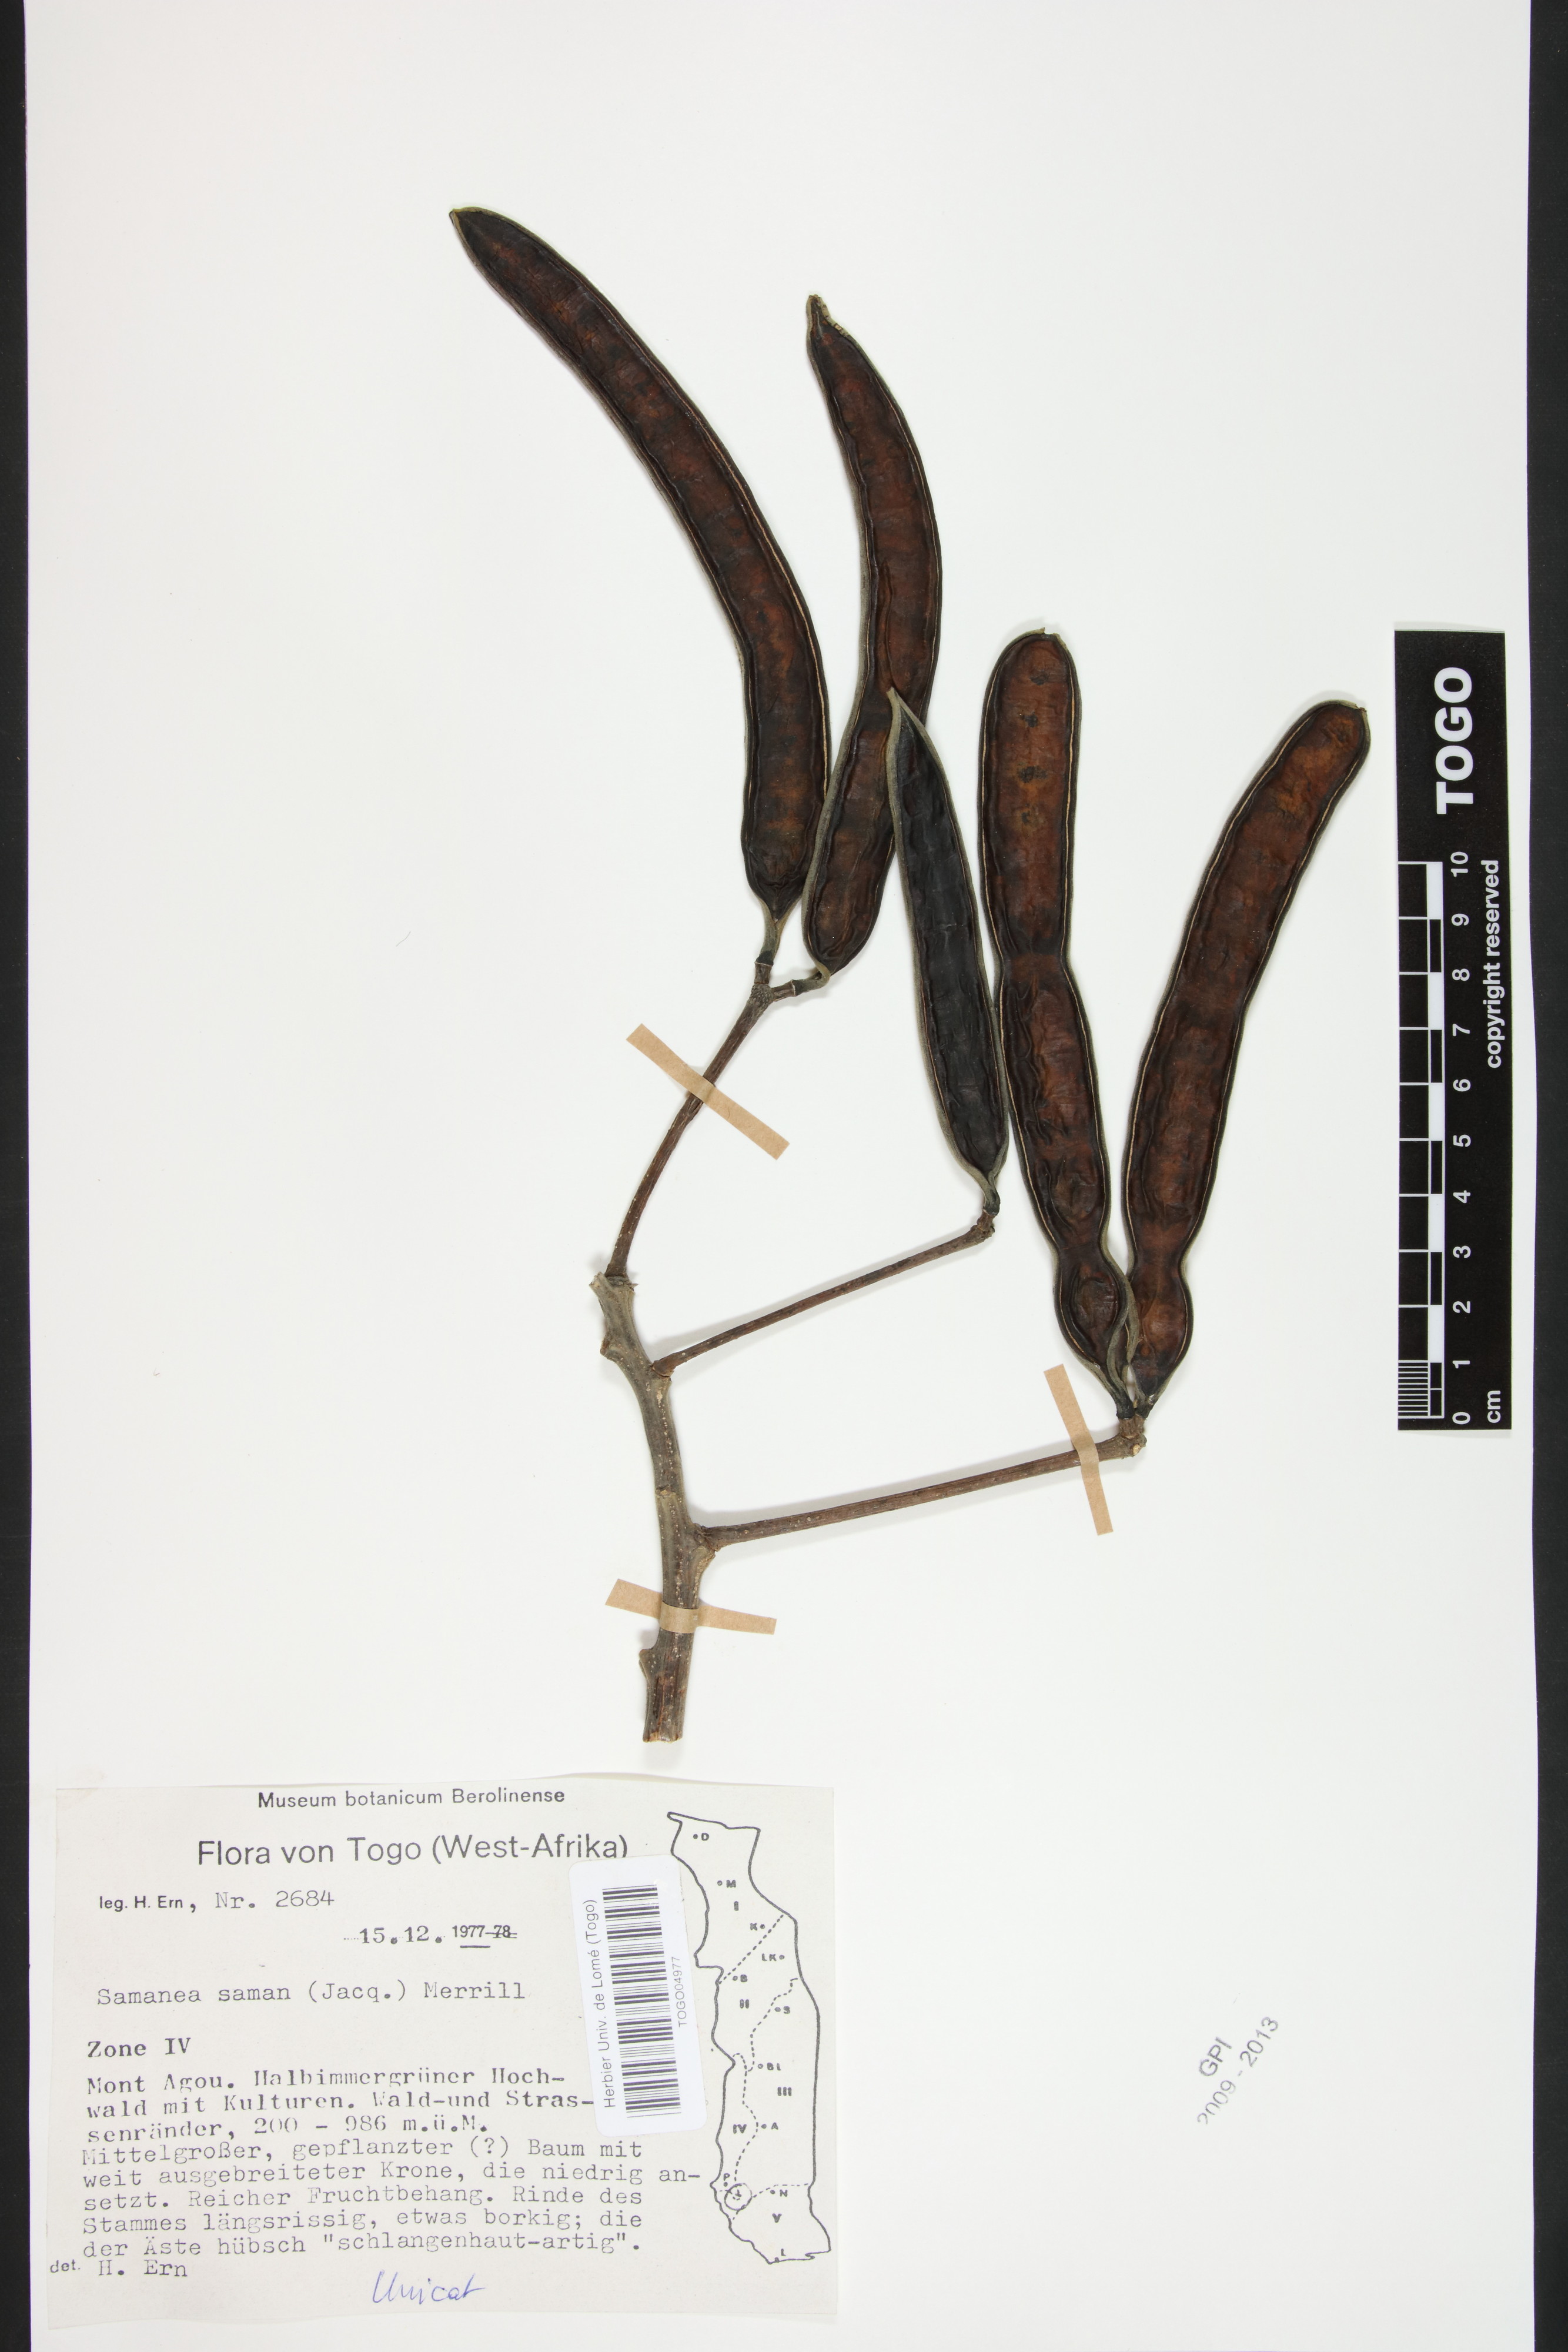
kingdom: Plantae
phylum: Tracheophyta
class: Magnoliopsida
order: Fabales
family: Fabaceae
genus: Samanea
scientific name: Samanea saman
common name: Raintree
